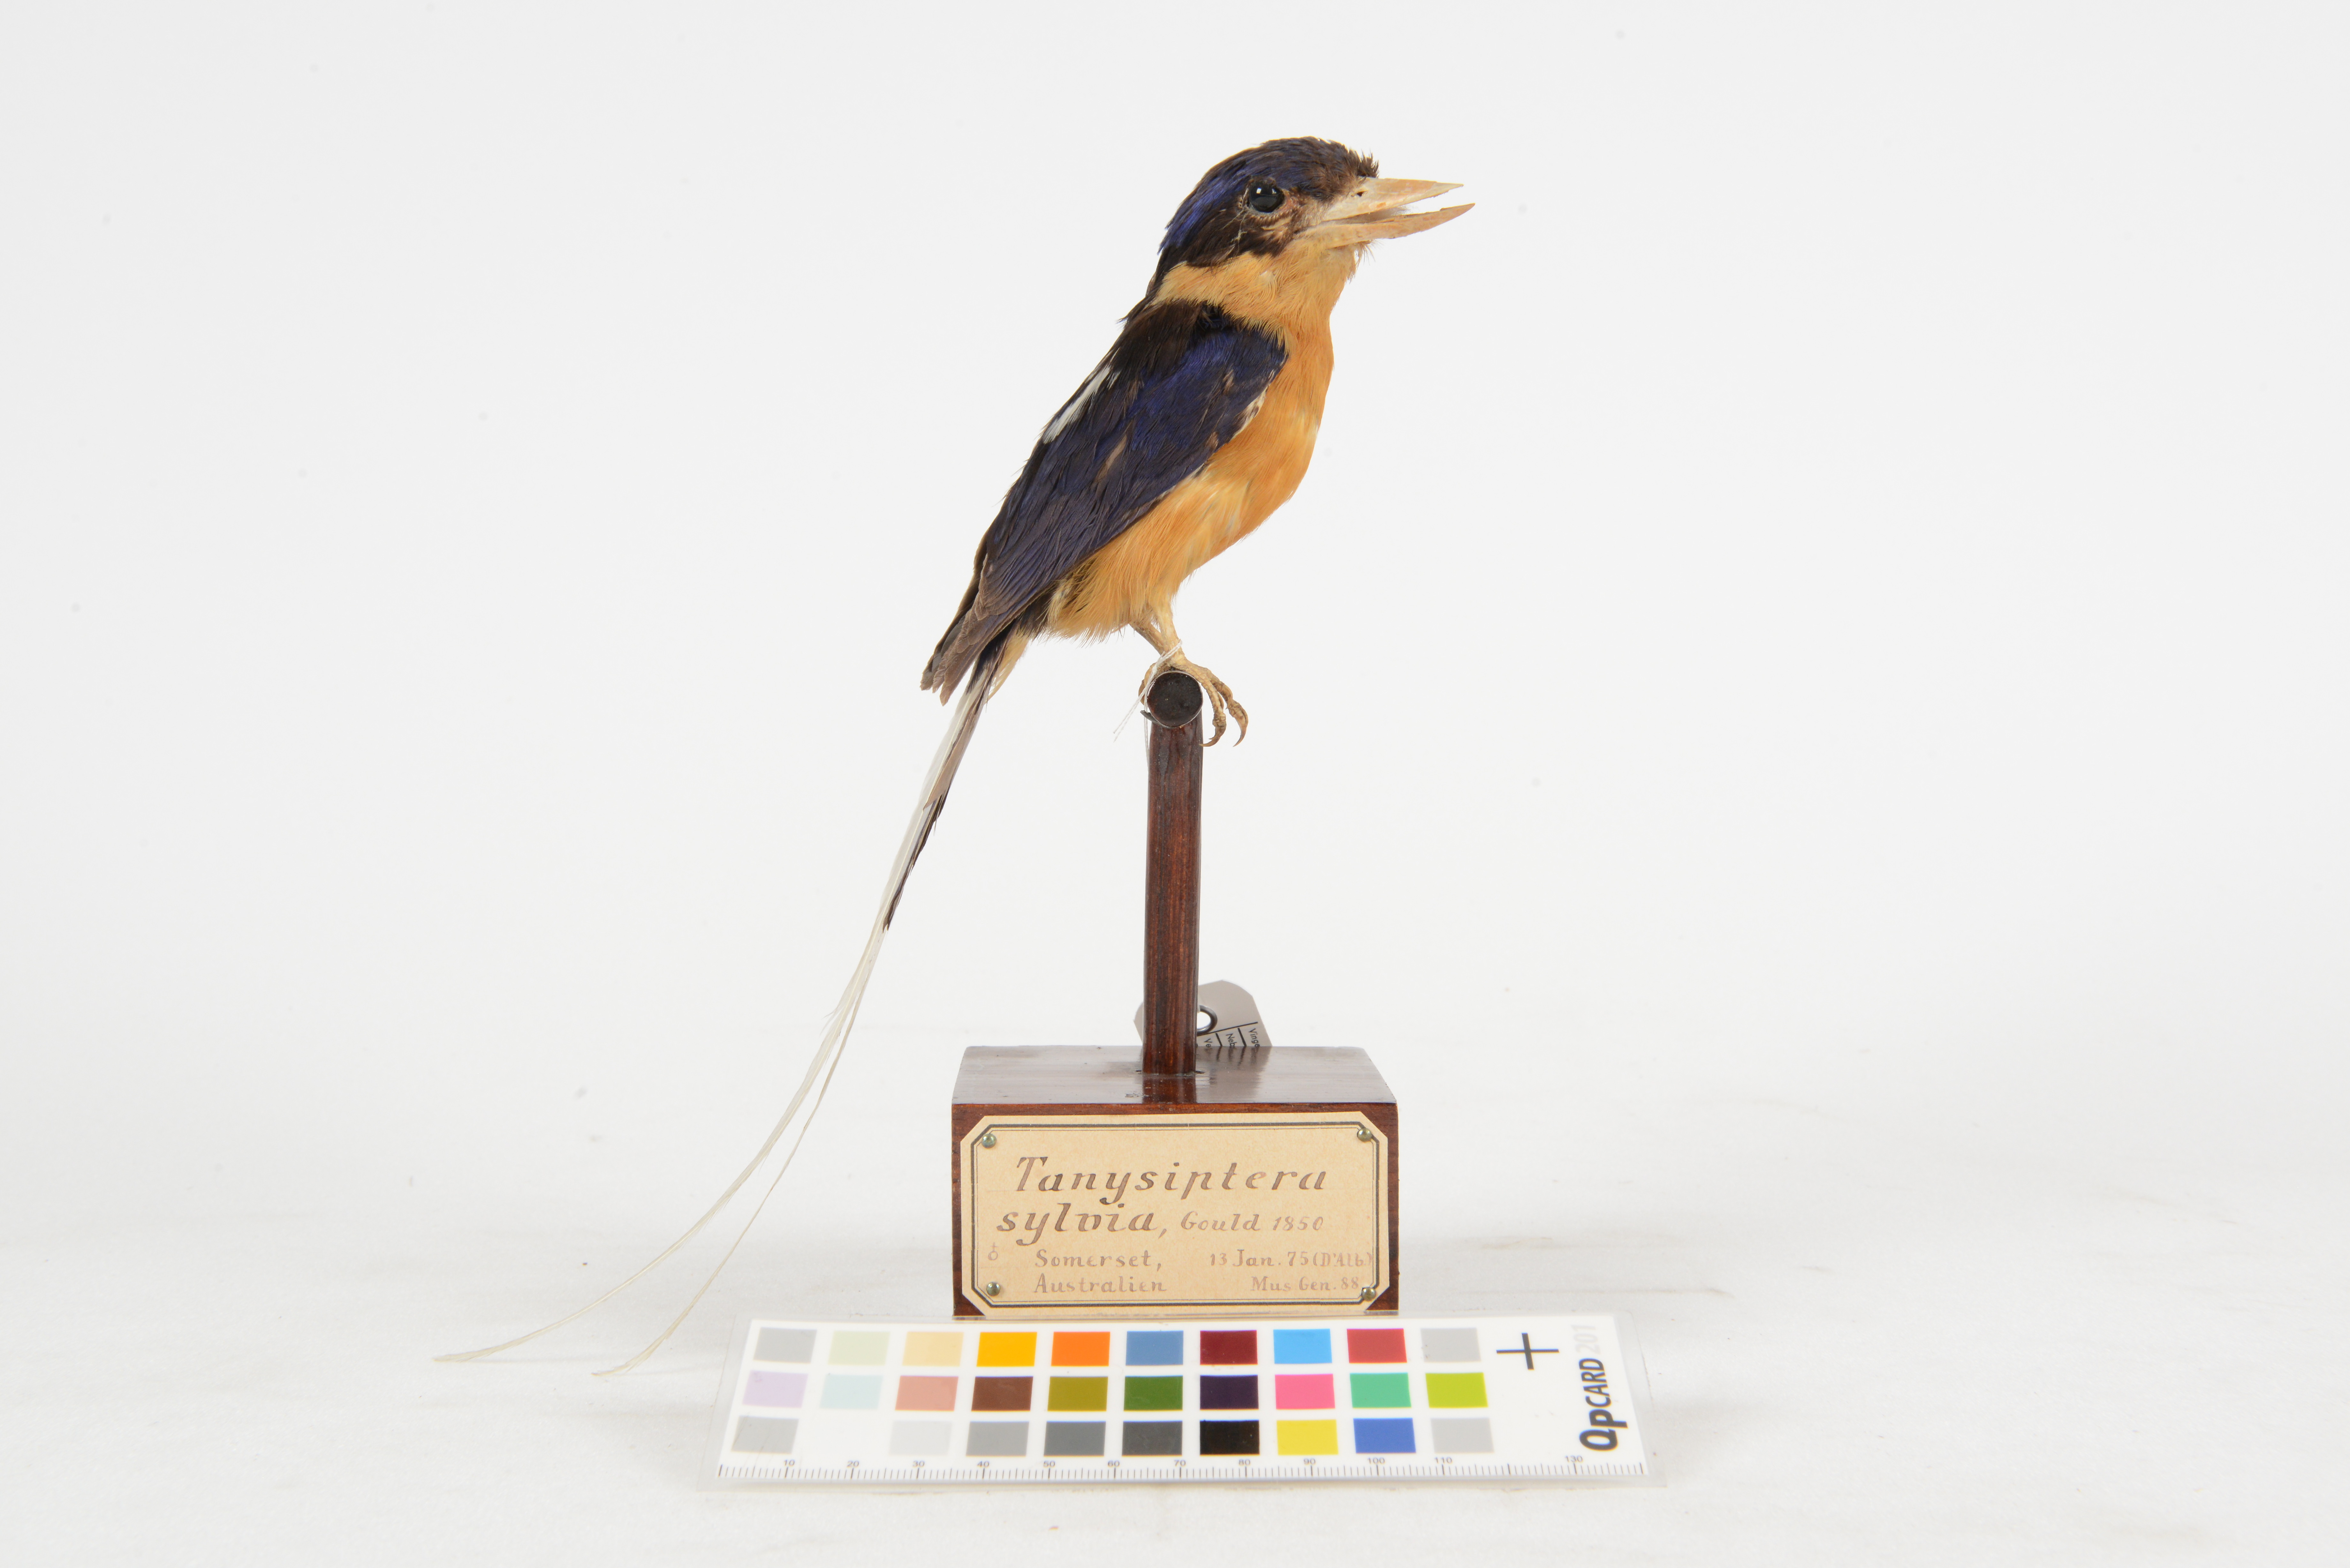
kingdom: Animalia
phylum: Chordata
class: Aves
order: Coraciiformes
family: Alcedinidae
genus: Tanysiptera
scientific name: Tanysiptera sylvia
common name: Buff-breasted paradise kingfisher
